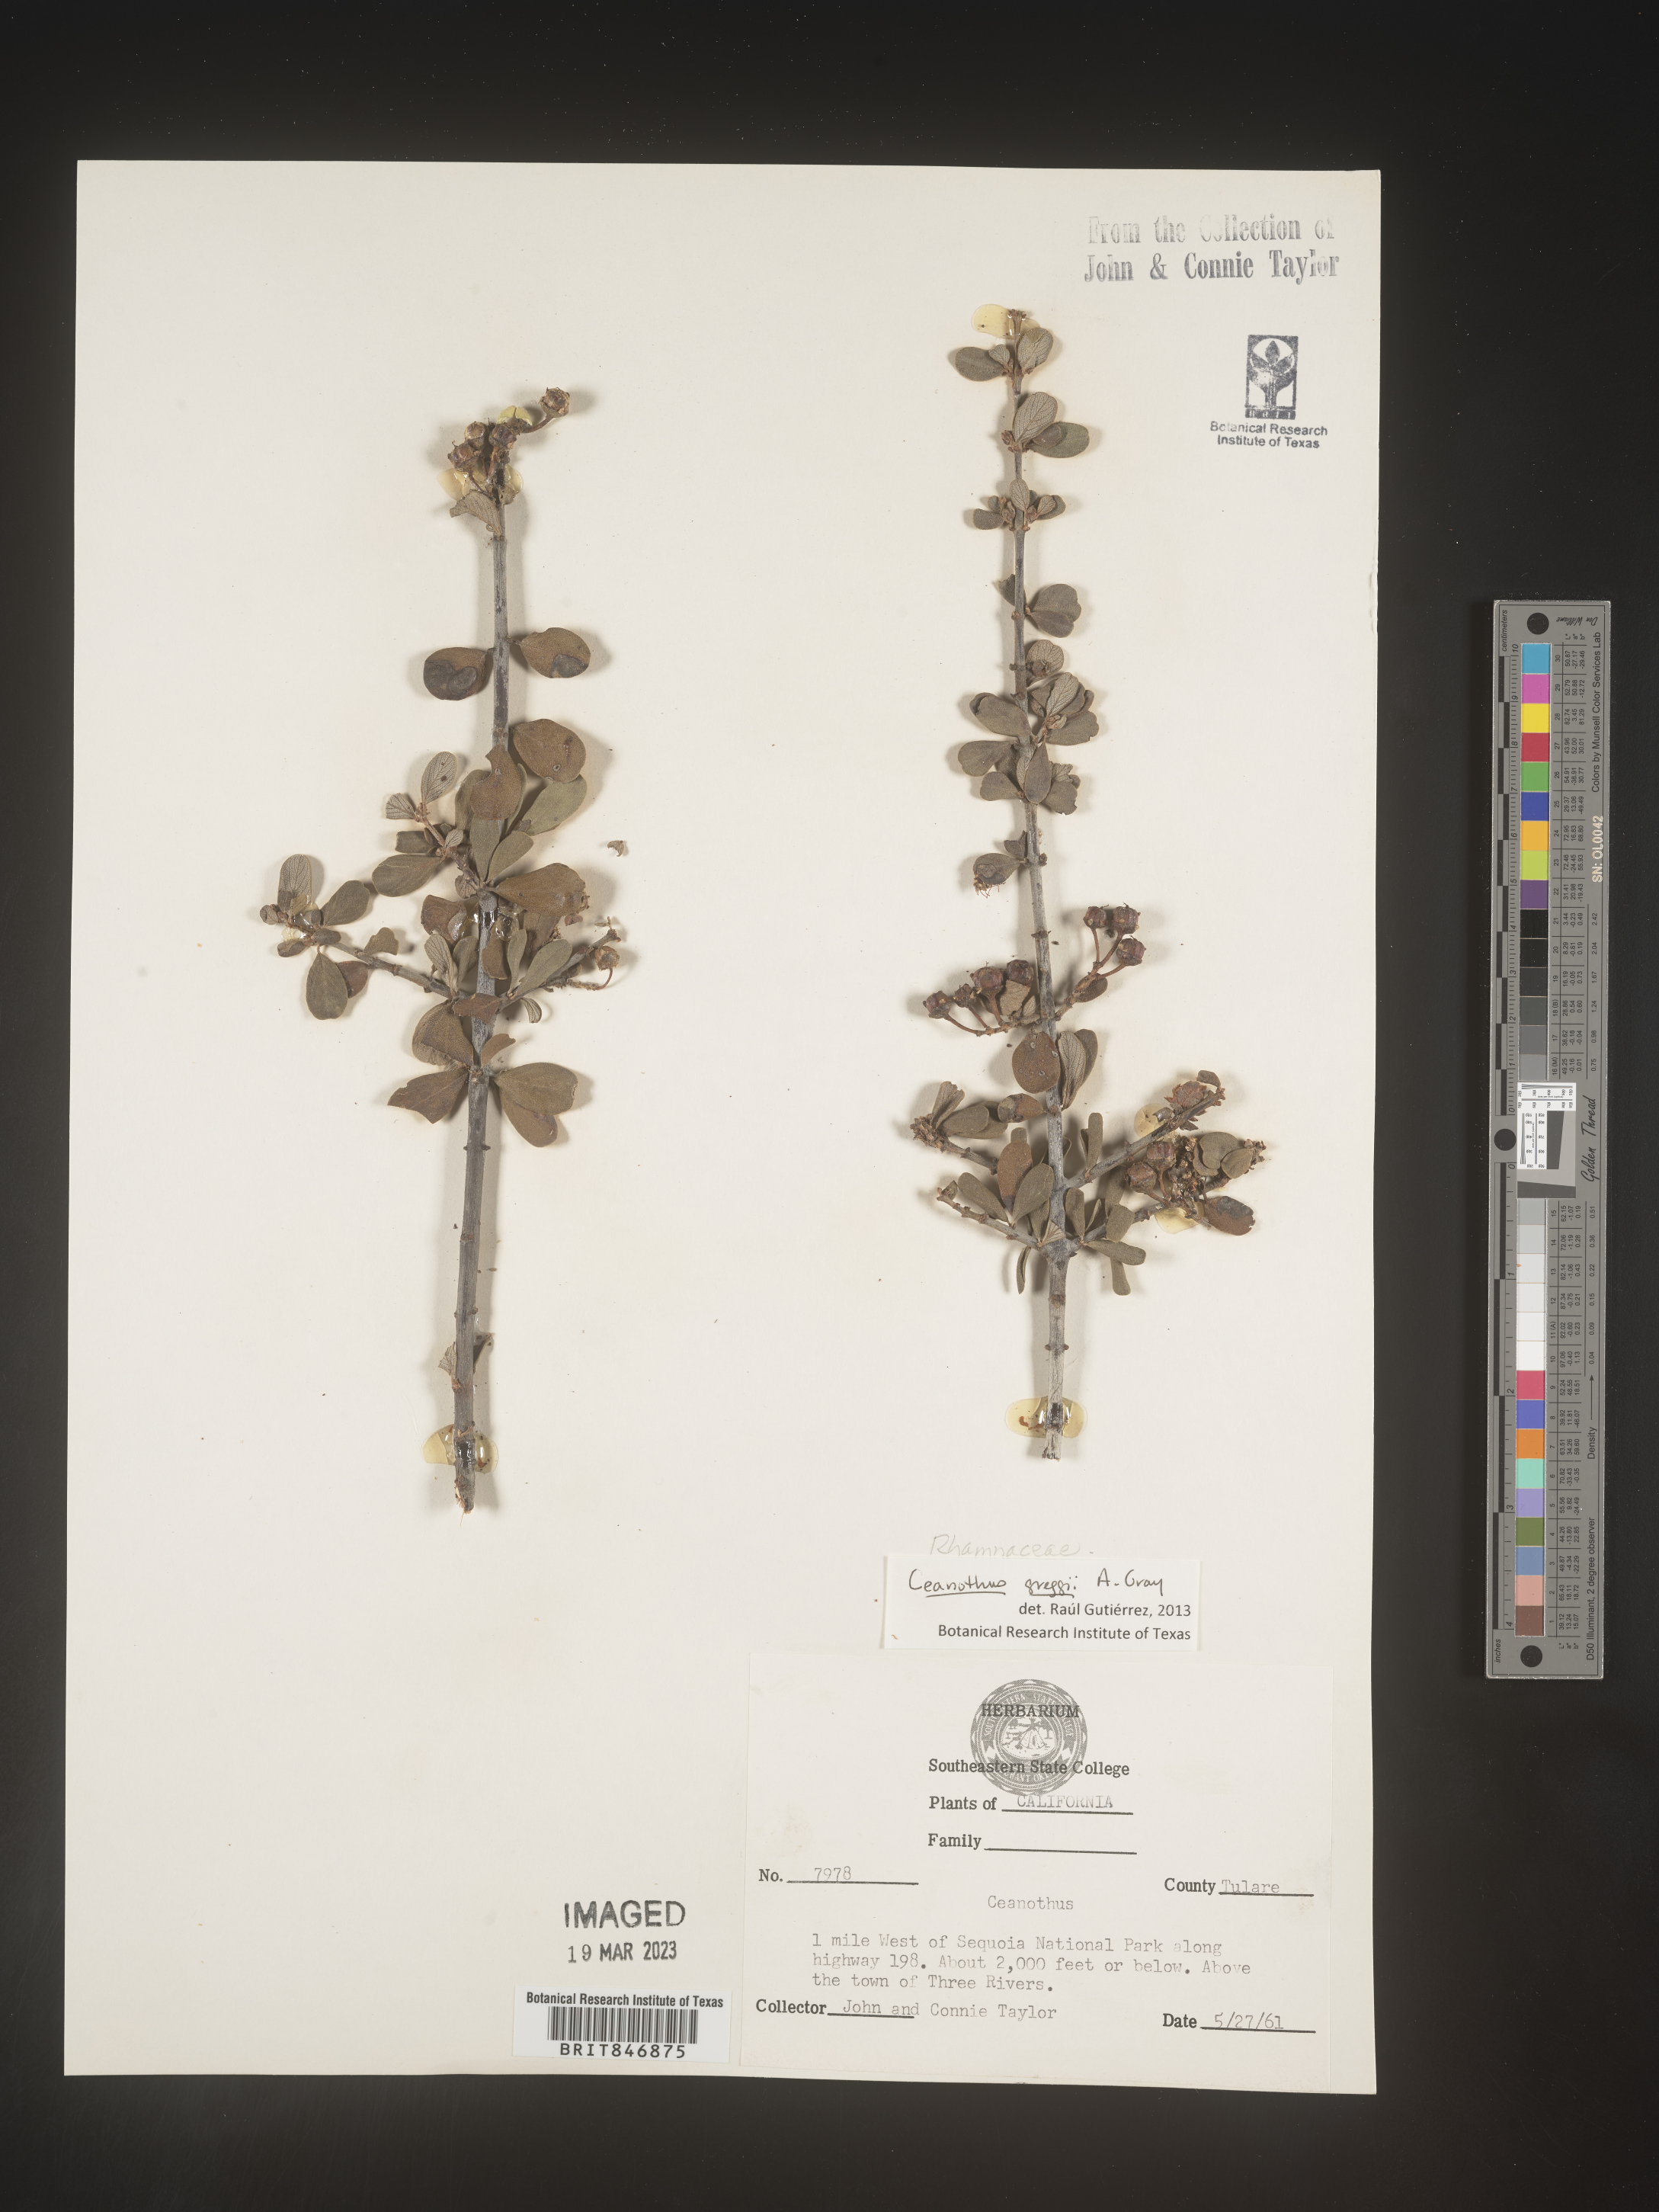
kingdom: Plantae
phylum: Tracheophyta
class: Magnoliopsida
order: Rosales
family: Rhamnaceae
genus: Ceanothus
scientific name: Ceanothus
